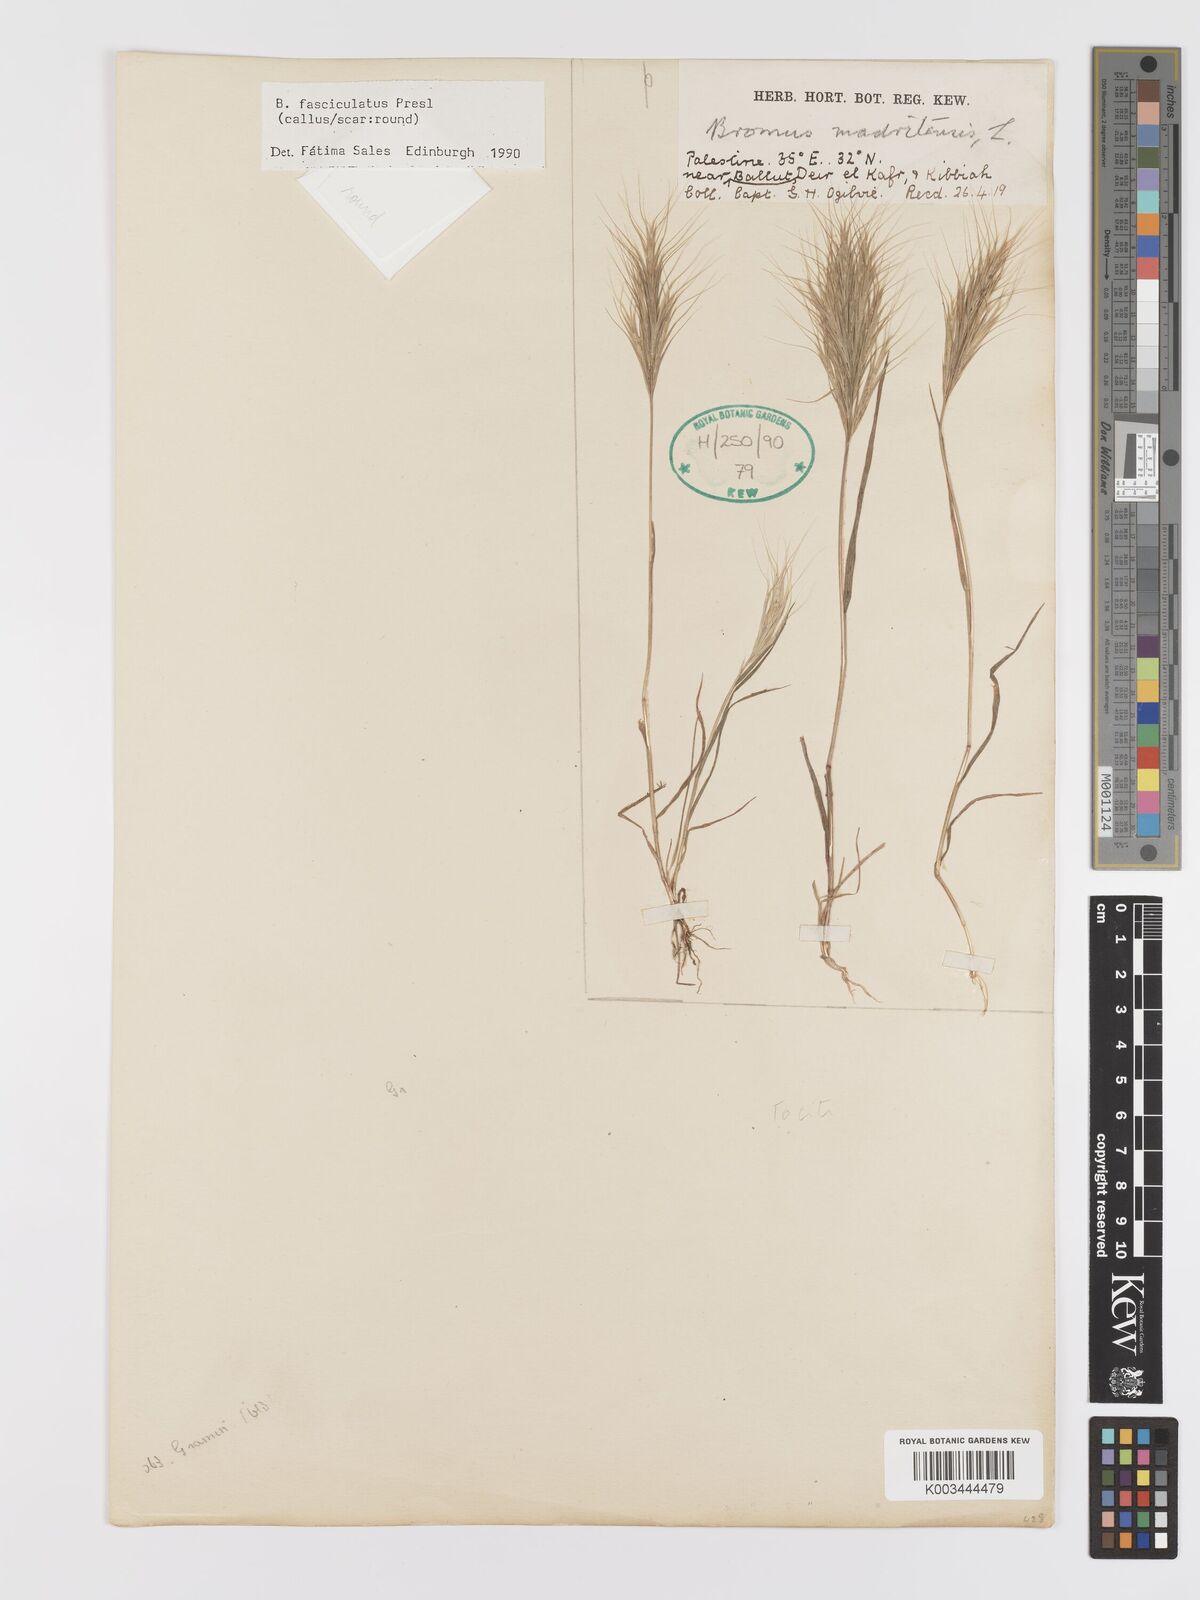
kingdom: Plantae
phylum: Tracheophyta
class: Liliopsida
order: Poales
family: Poaceae
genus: Bromus
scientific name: Bromus fasciculatus
